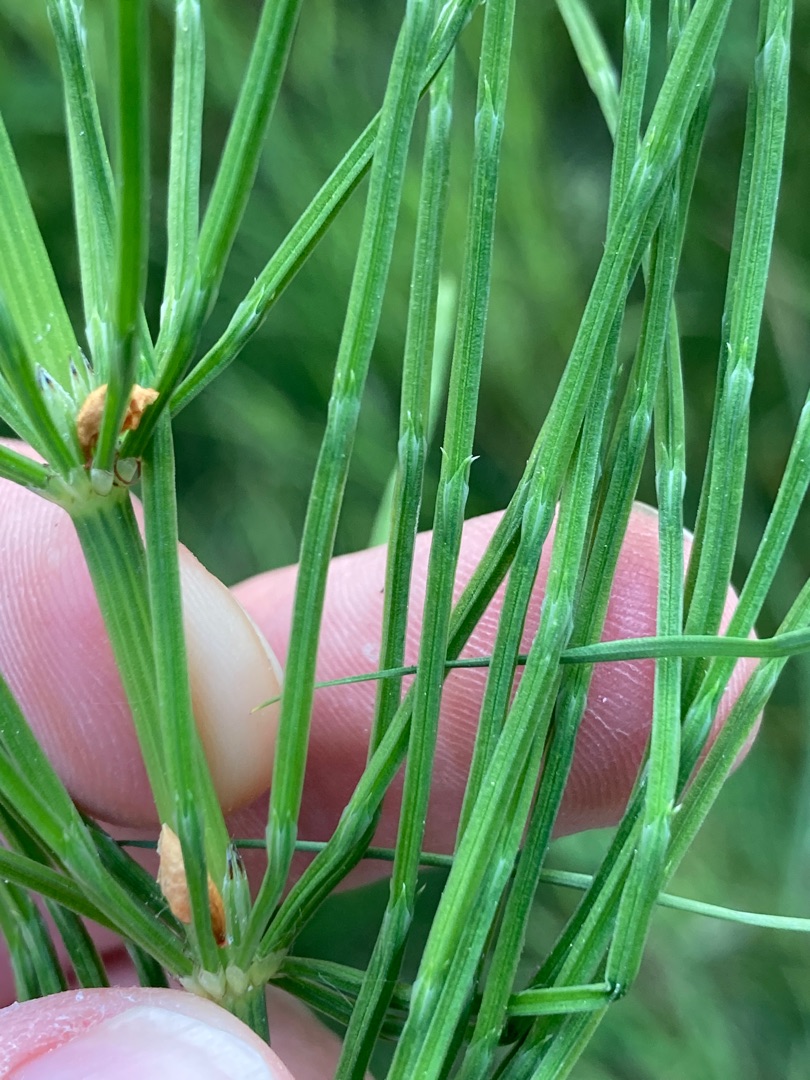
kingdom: Plantae
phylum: Tracheophyta
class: Polypodiopsida
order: Equisetales
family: Equisetaceae
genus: Equisetum
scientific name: Equisetum arvense
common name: Ager-padderok
